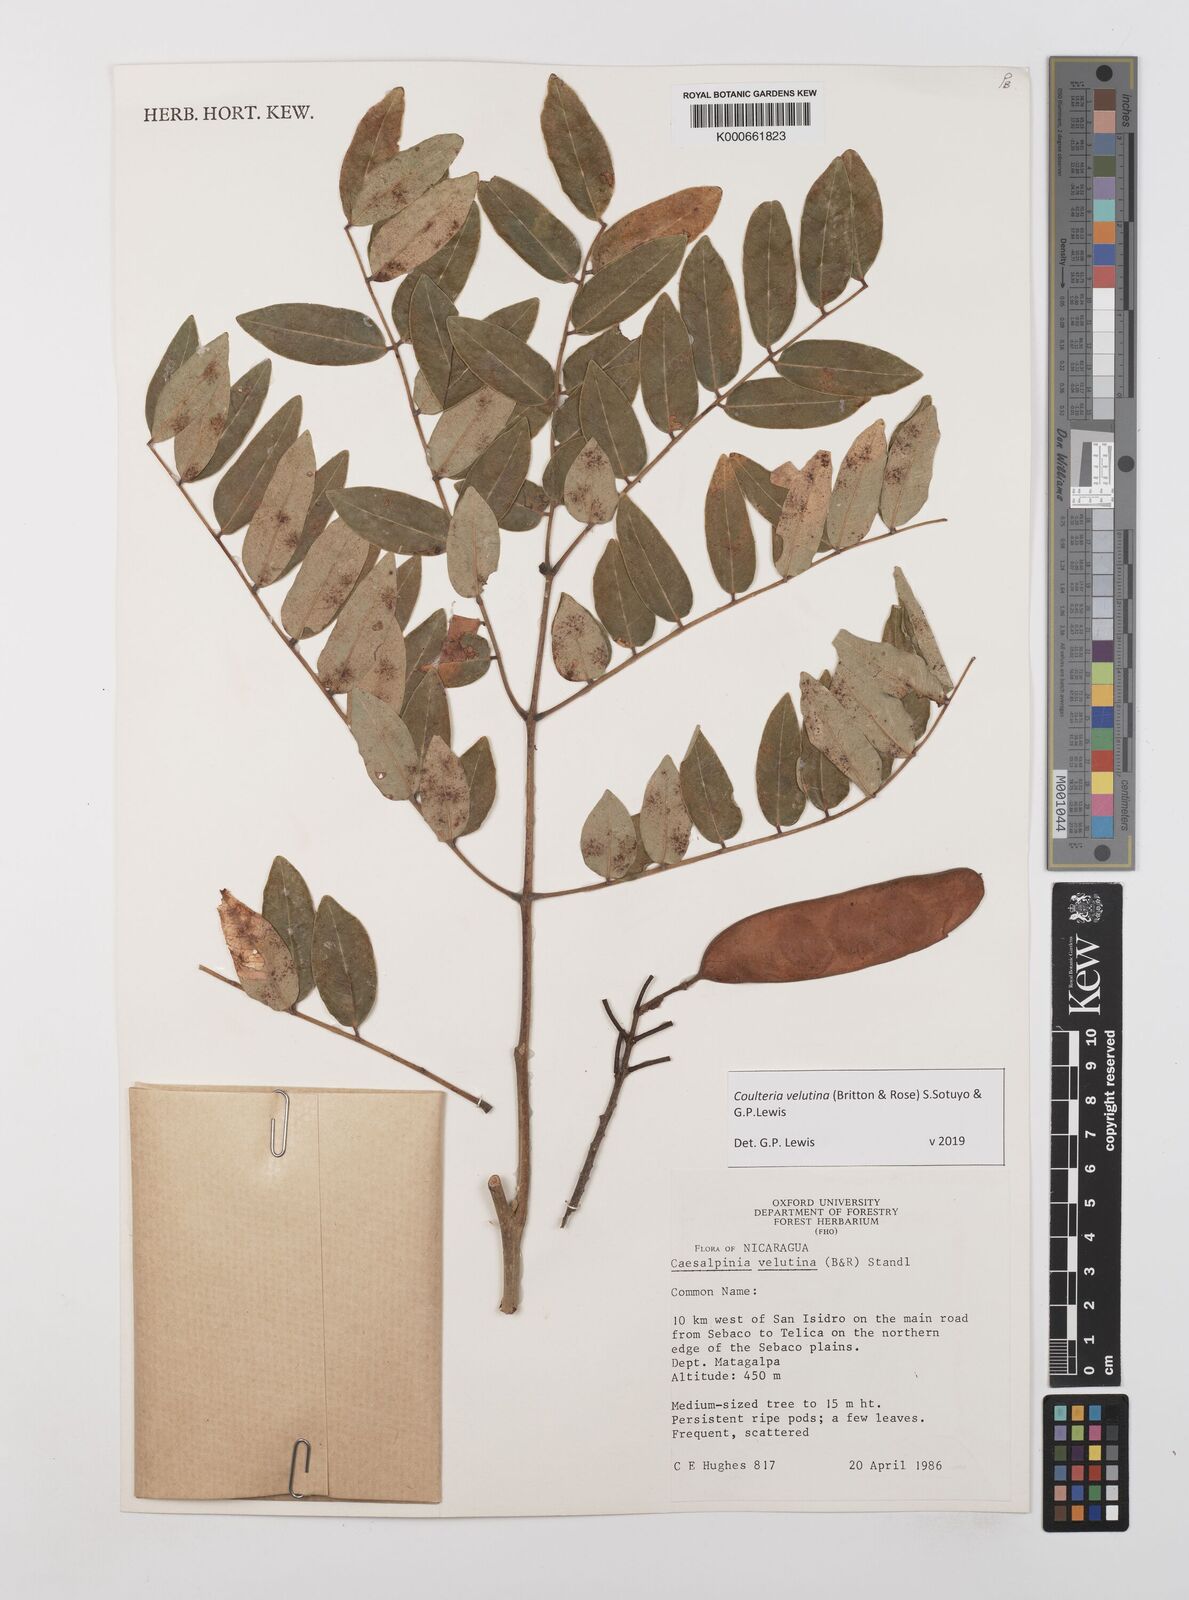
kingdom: Plantae
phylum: Tracheophyta
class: Magnoliopsida
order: Fabales
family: Fabaceae
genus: Coulteria
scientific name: Coulteria velutina
